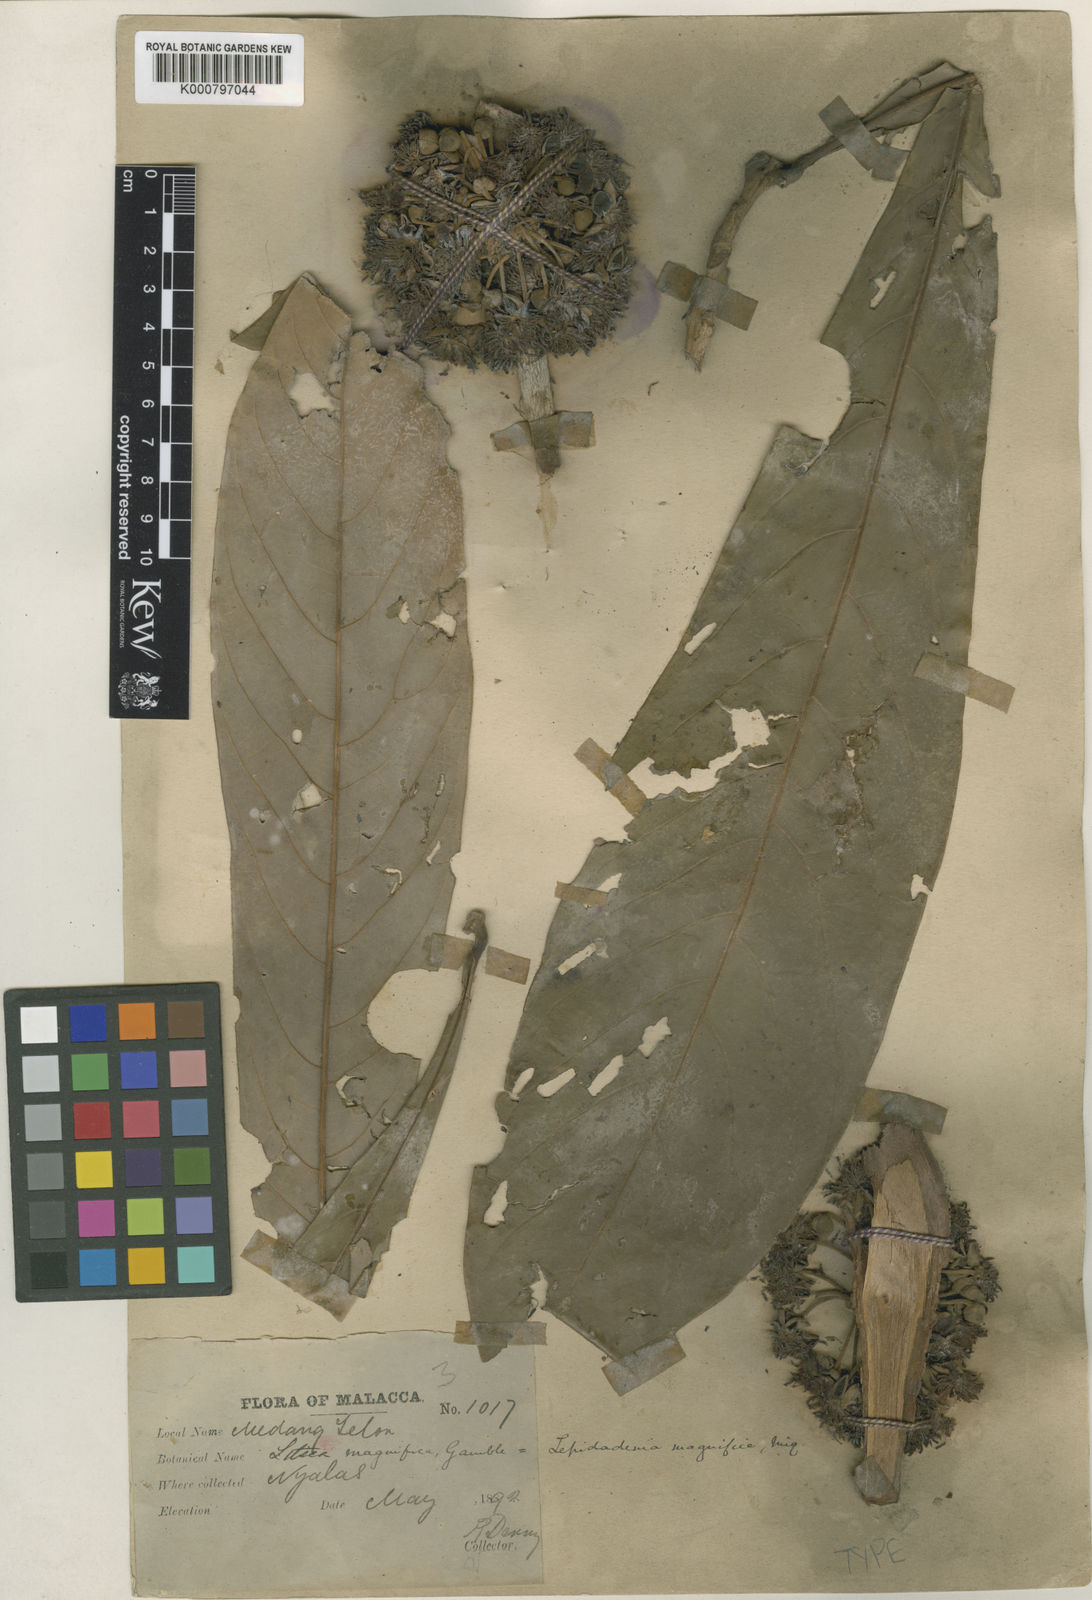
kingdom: Plantae
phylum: Tracheophyta
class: Magnoliopsida
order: Laurales
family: Lauraceae
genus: Litsea
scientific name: Litsea johorensis
